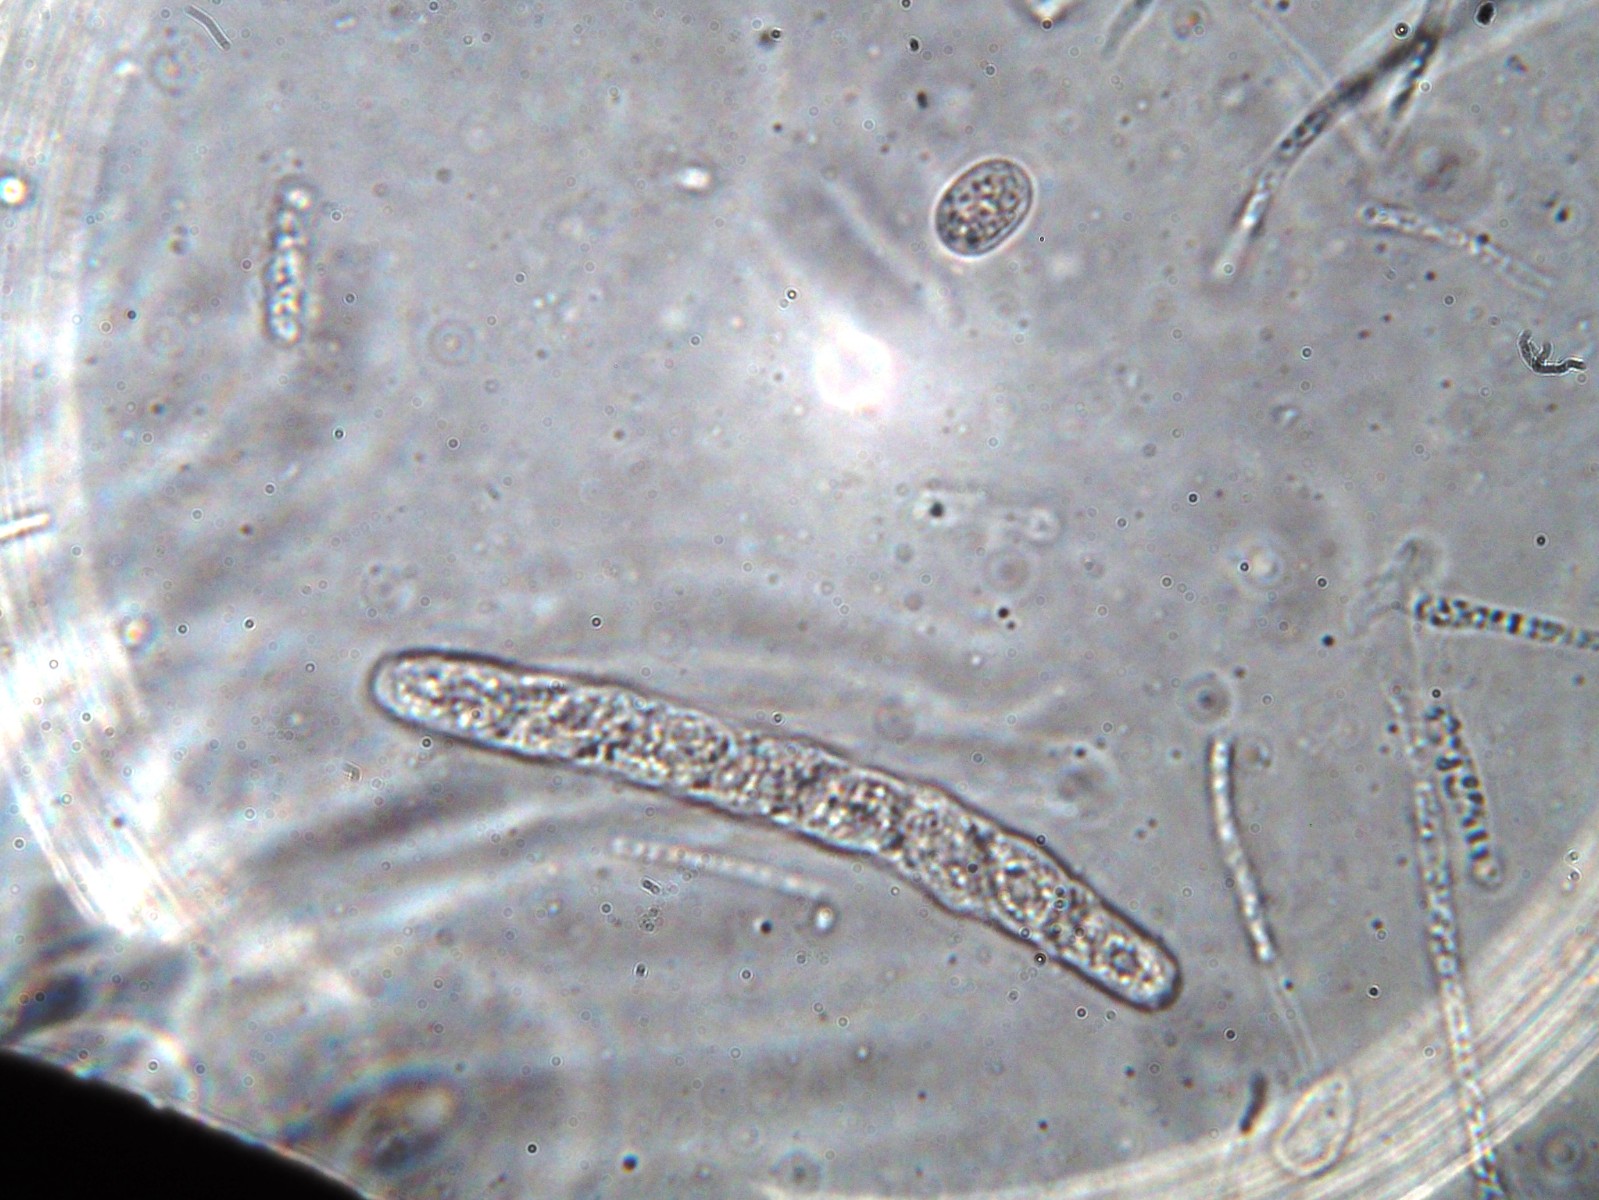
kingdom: Fungi
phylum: Ascomycota
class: Sordariomycetes
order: Phyllachorales
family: Phyllachoraceae
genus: Phyllachora
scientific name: Phyllachora graminis
